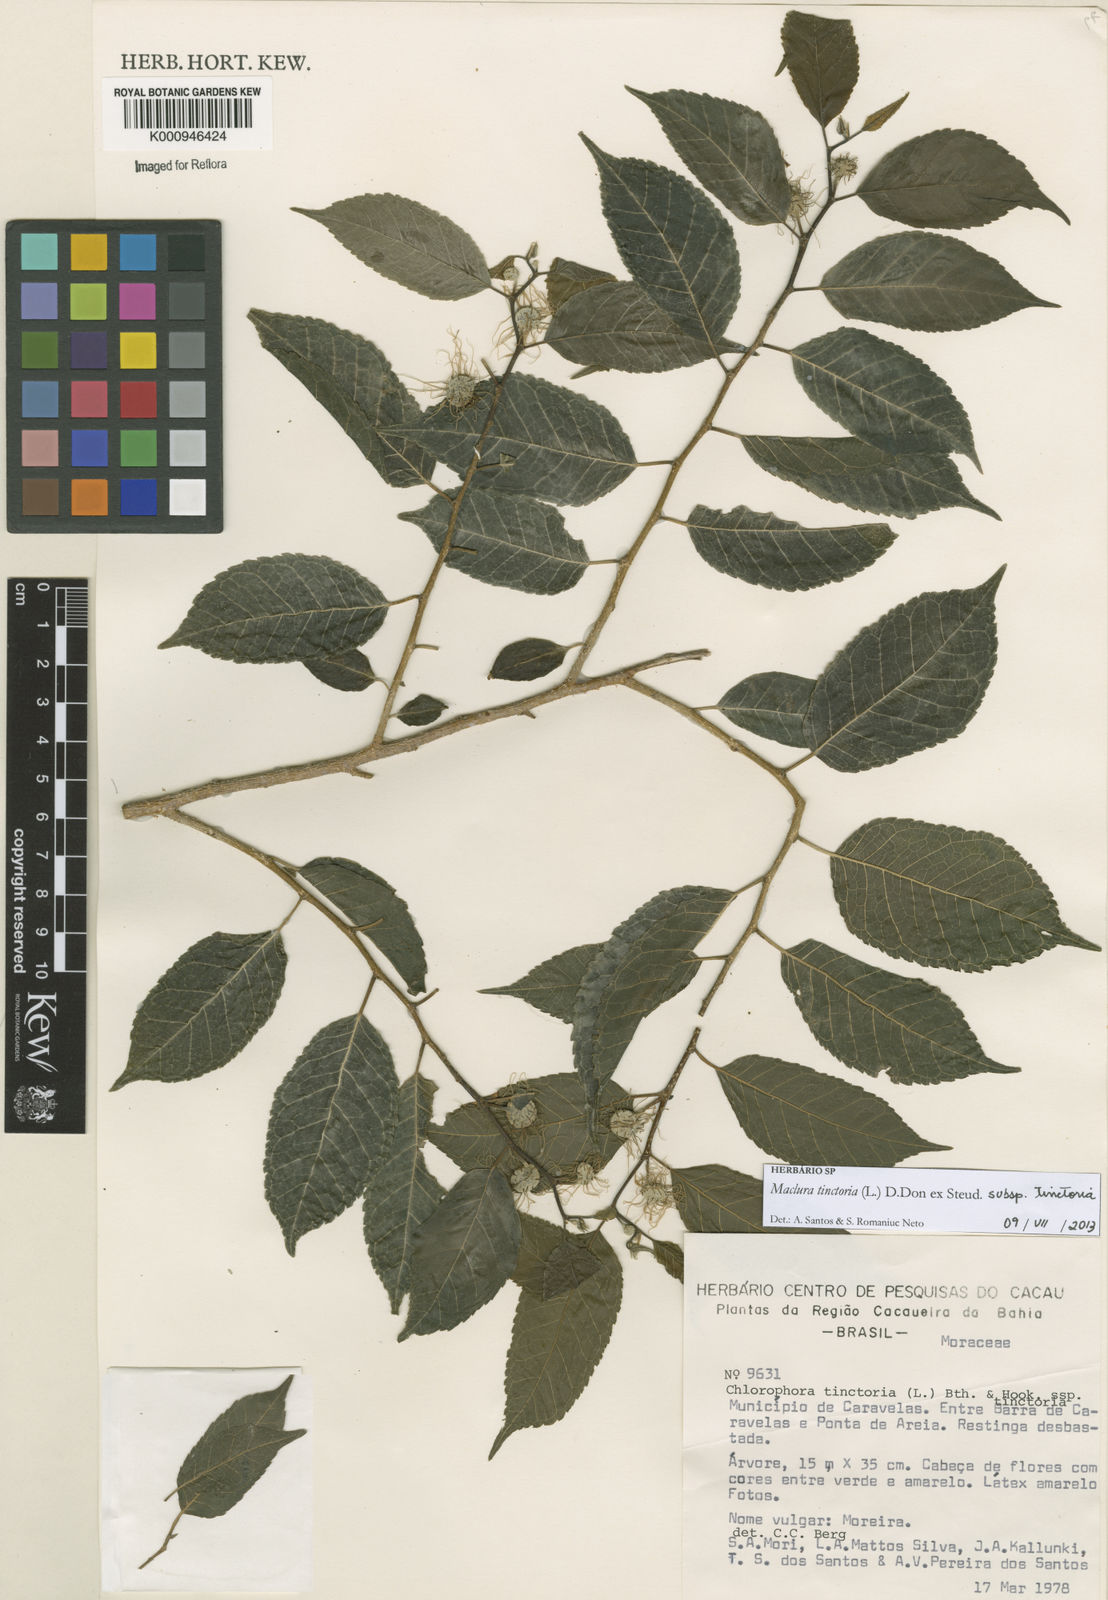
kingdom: Plantae
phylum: Tracheophyta
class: Magnoliopsida
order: Rosales
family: Moraceae
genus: Maclura
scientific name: Maclura
